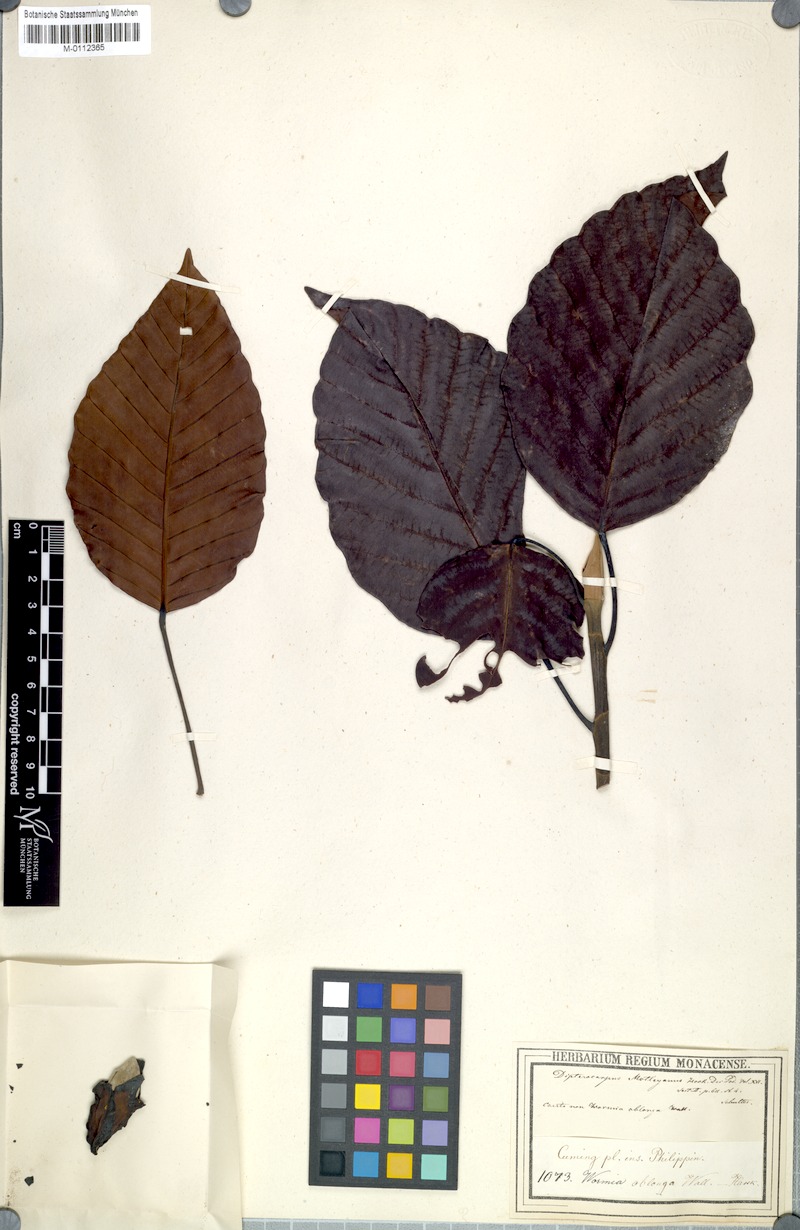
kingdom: Plantae
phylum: Tracheophyta
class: Magnoliopsida
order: Malvales
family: Dipterocarpaceae
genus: Dipterocarpus
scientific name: Dipterocarpus grandiflorus
